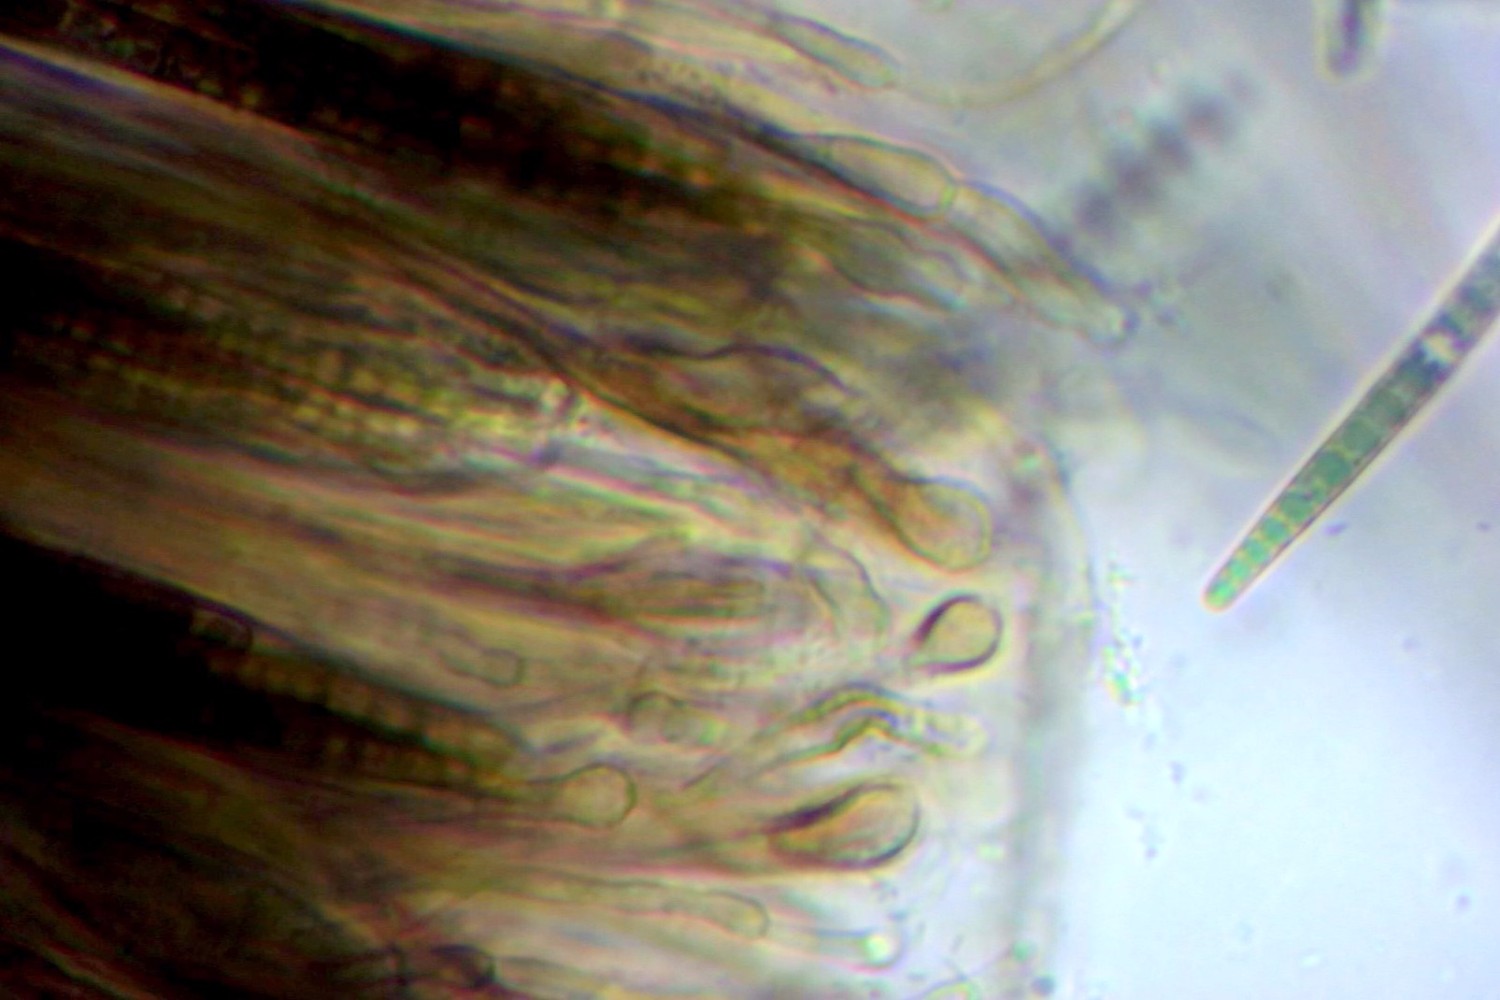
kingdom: Fungi
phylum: Ascomycota
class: Geoglossomycetes
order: Geoglossales
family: Geoglossaceae
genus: Glutinoglossum
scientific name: Glutinoglossum glutinosum
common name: slimet jordtunge
